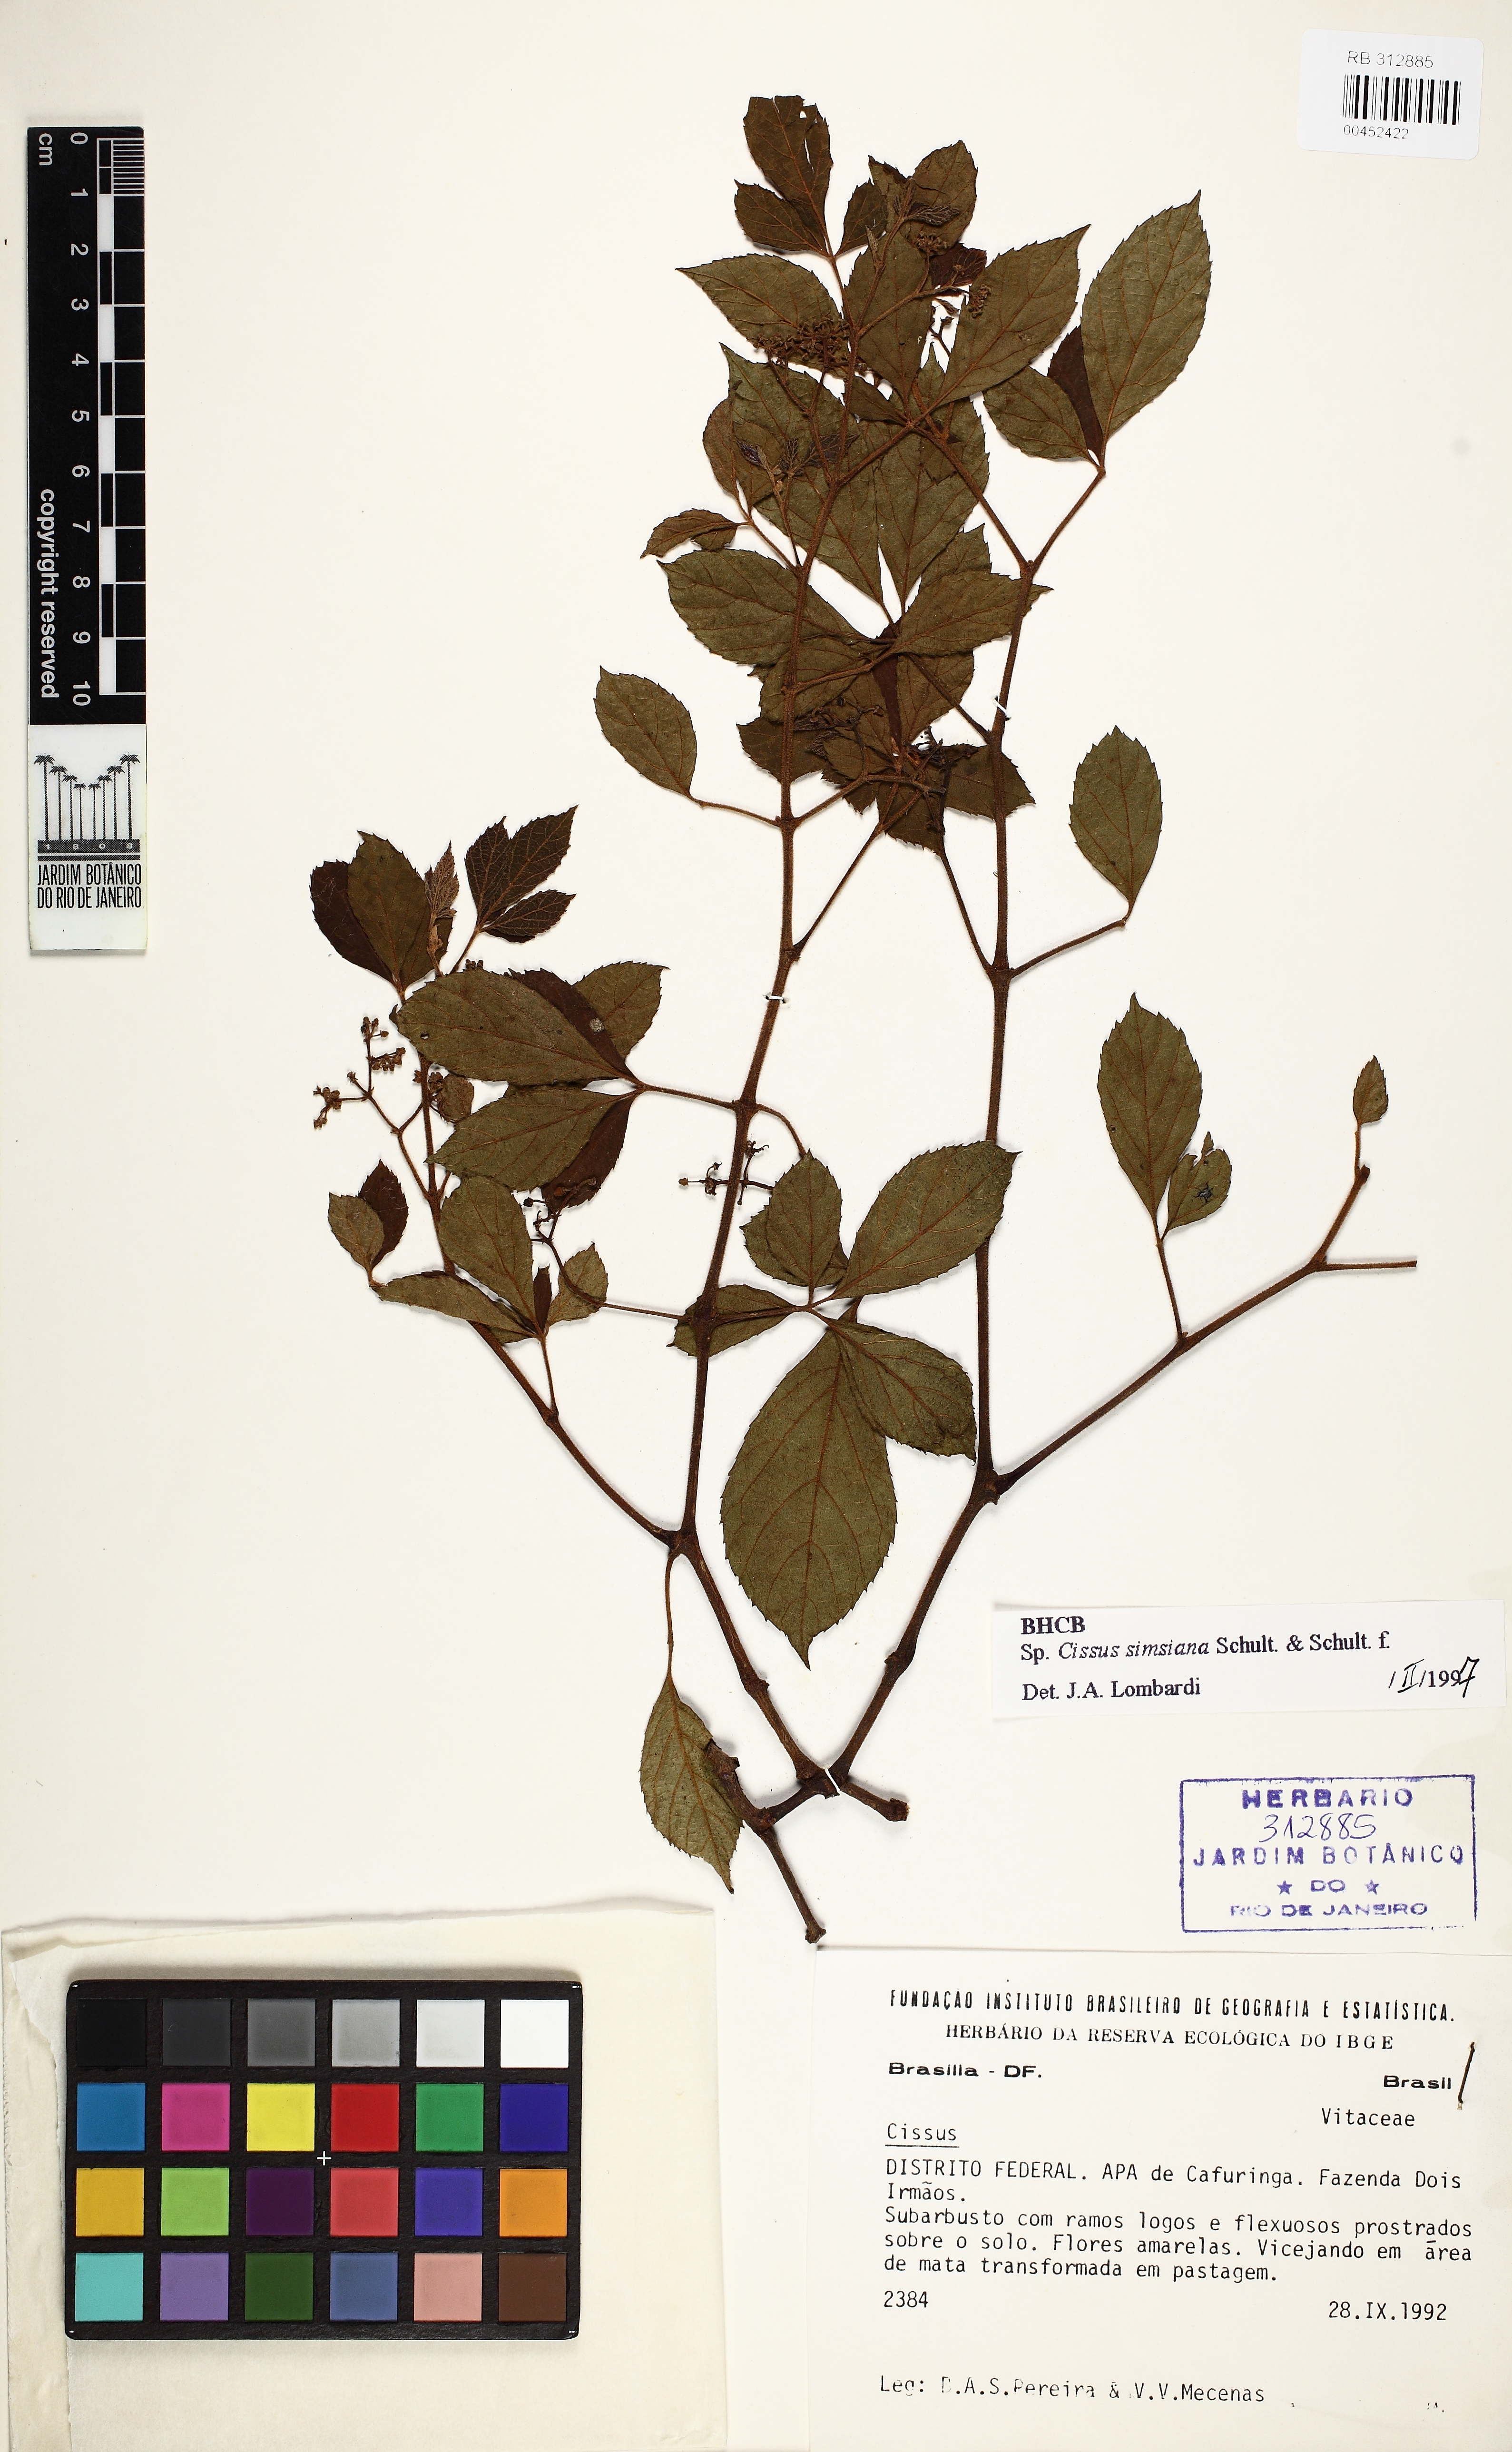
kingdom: Plantae
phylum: Tracheophyta
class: Magnoliopsida
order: Vitales
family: Vitaceae
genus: Clematicissus
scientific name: Clematicissus simsiana
